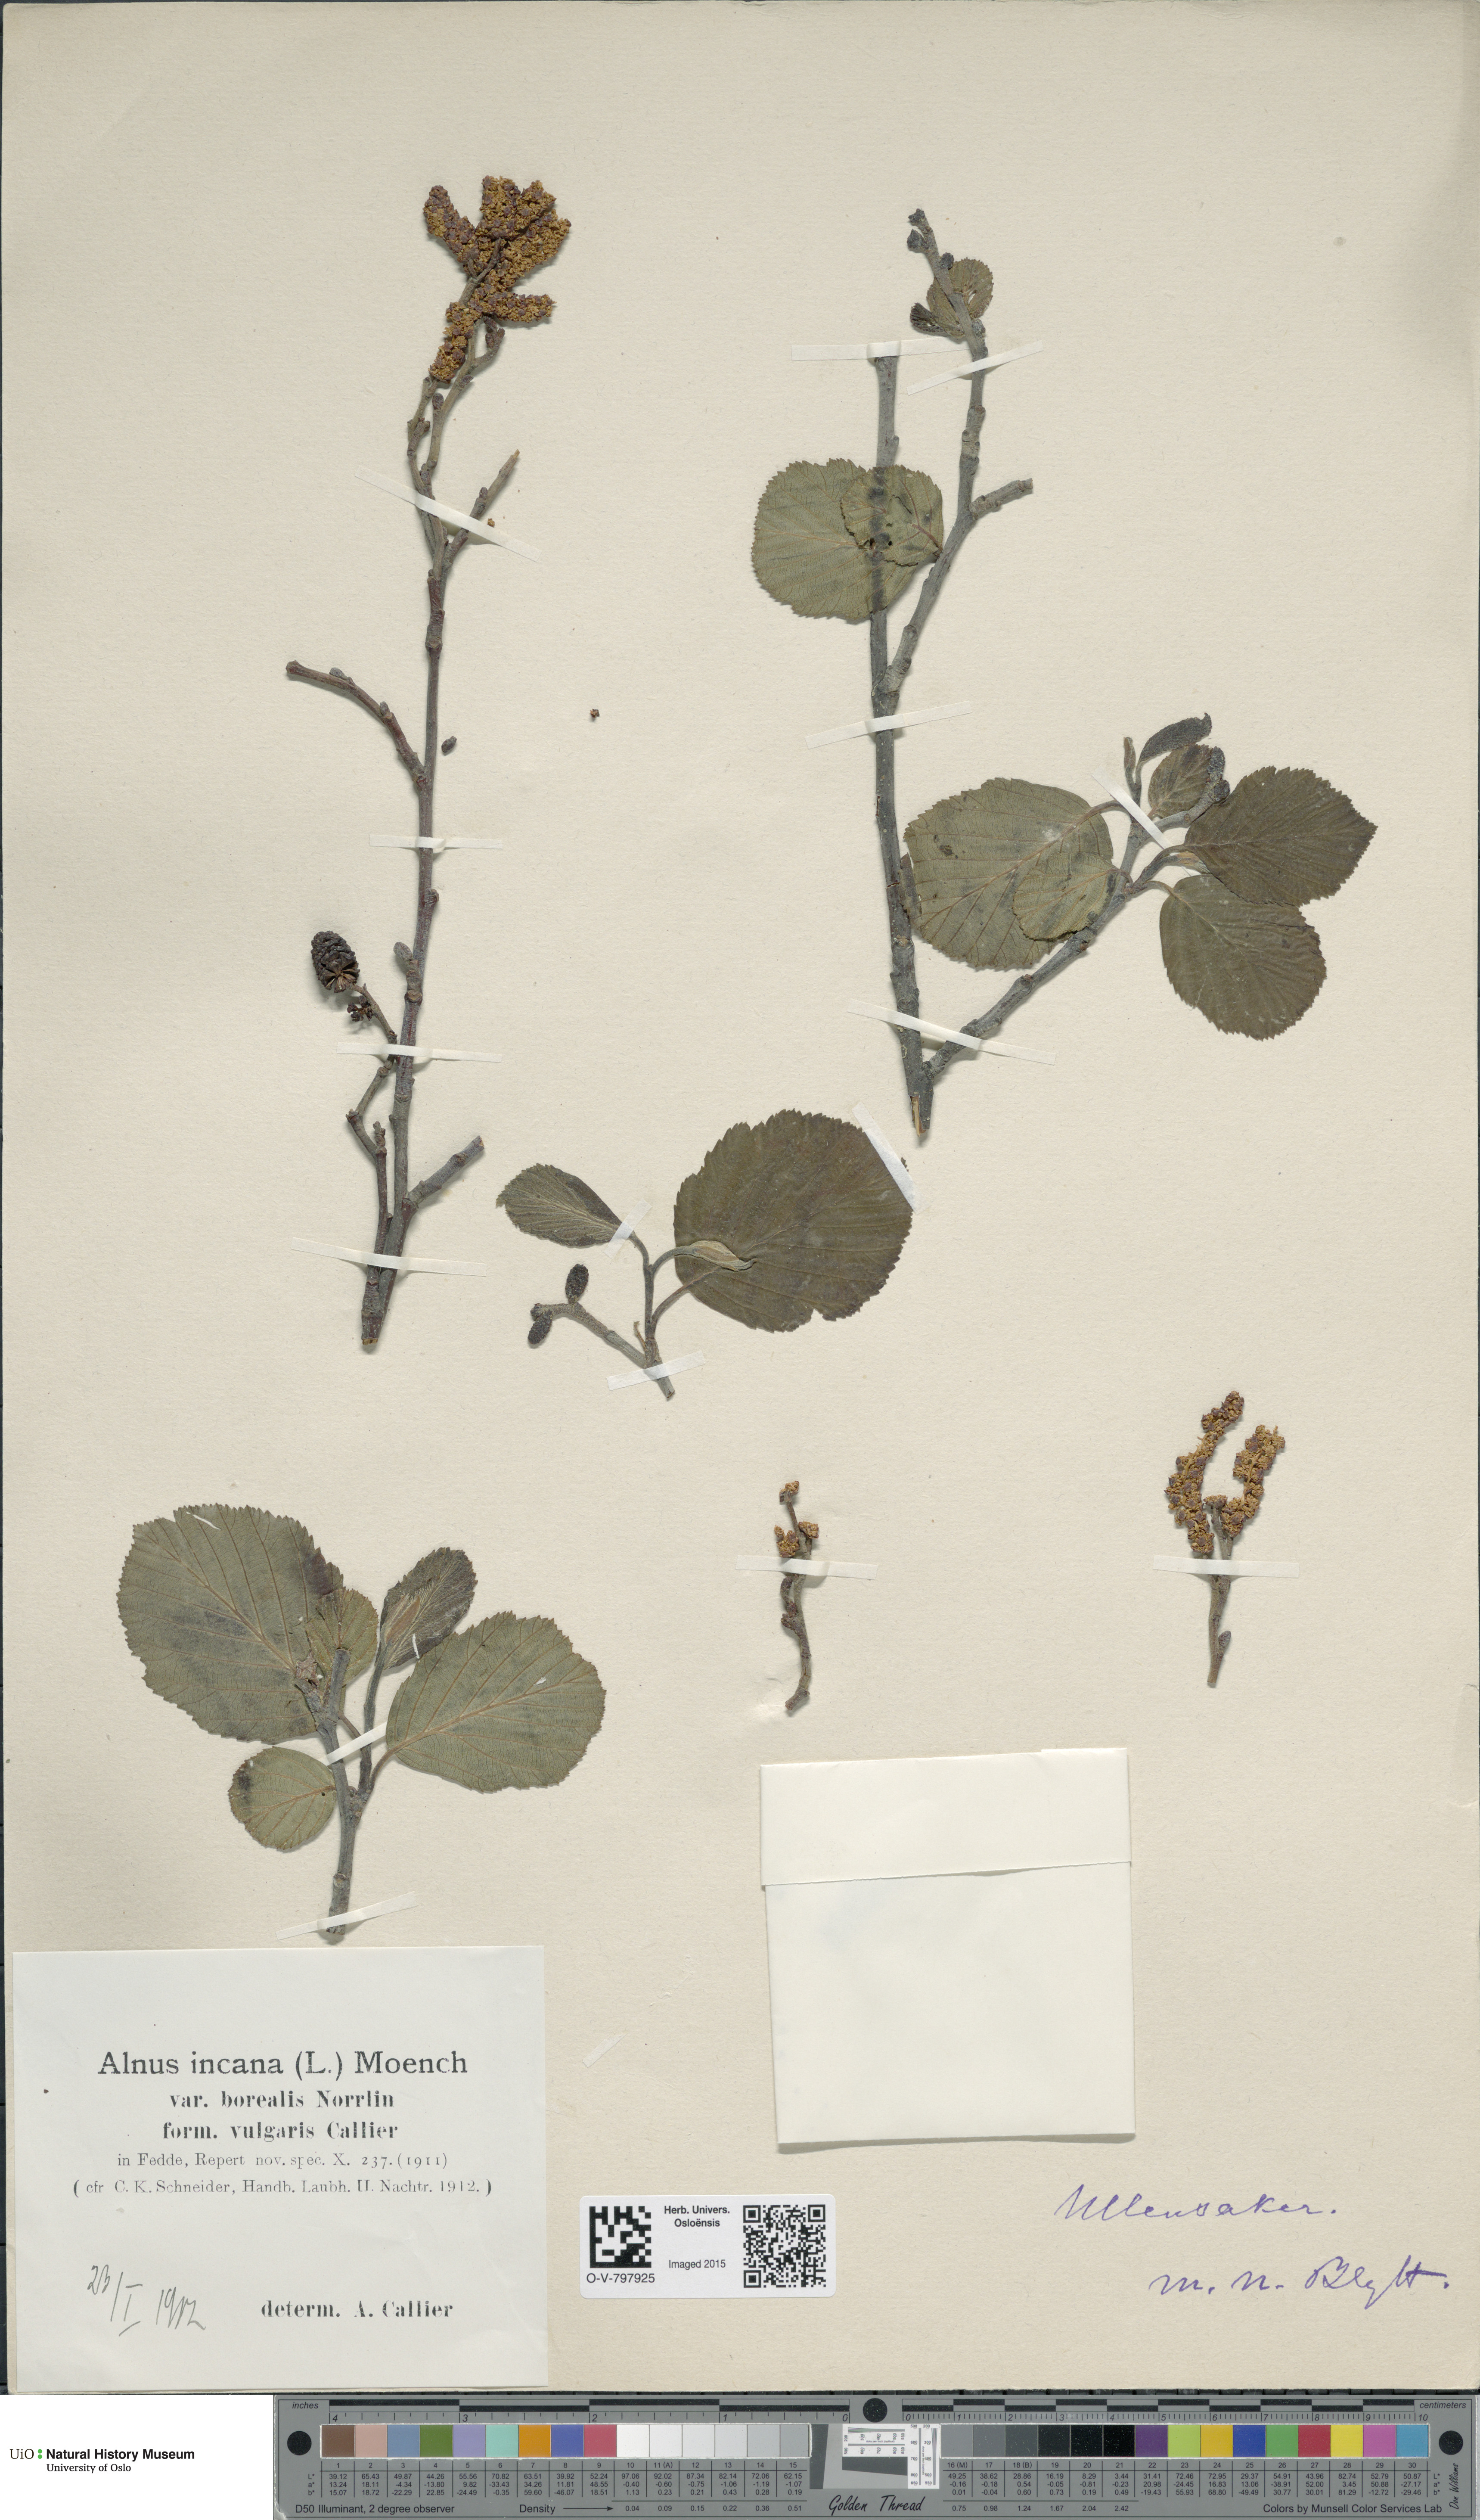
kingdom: Plantae
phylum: Tracheophyta
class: Magnoliopsida
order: Fagales
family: Betulaceae
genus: Alnus
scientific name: Alnus incana
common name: Grey alder
